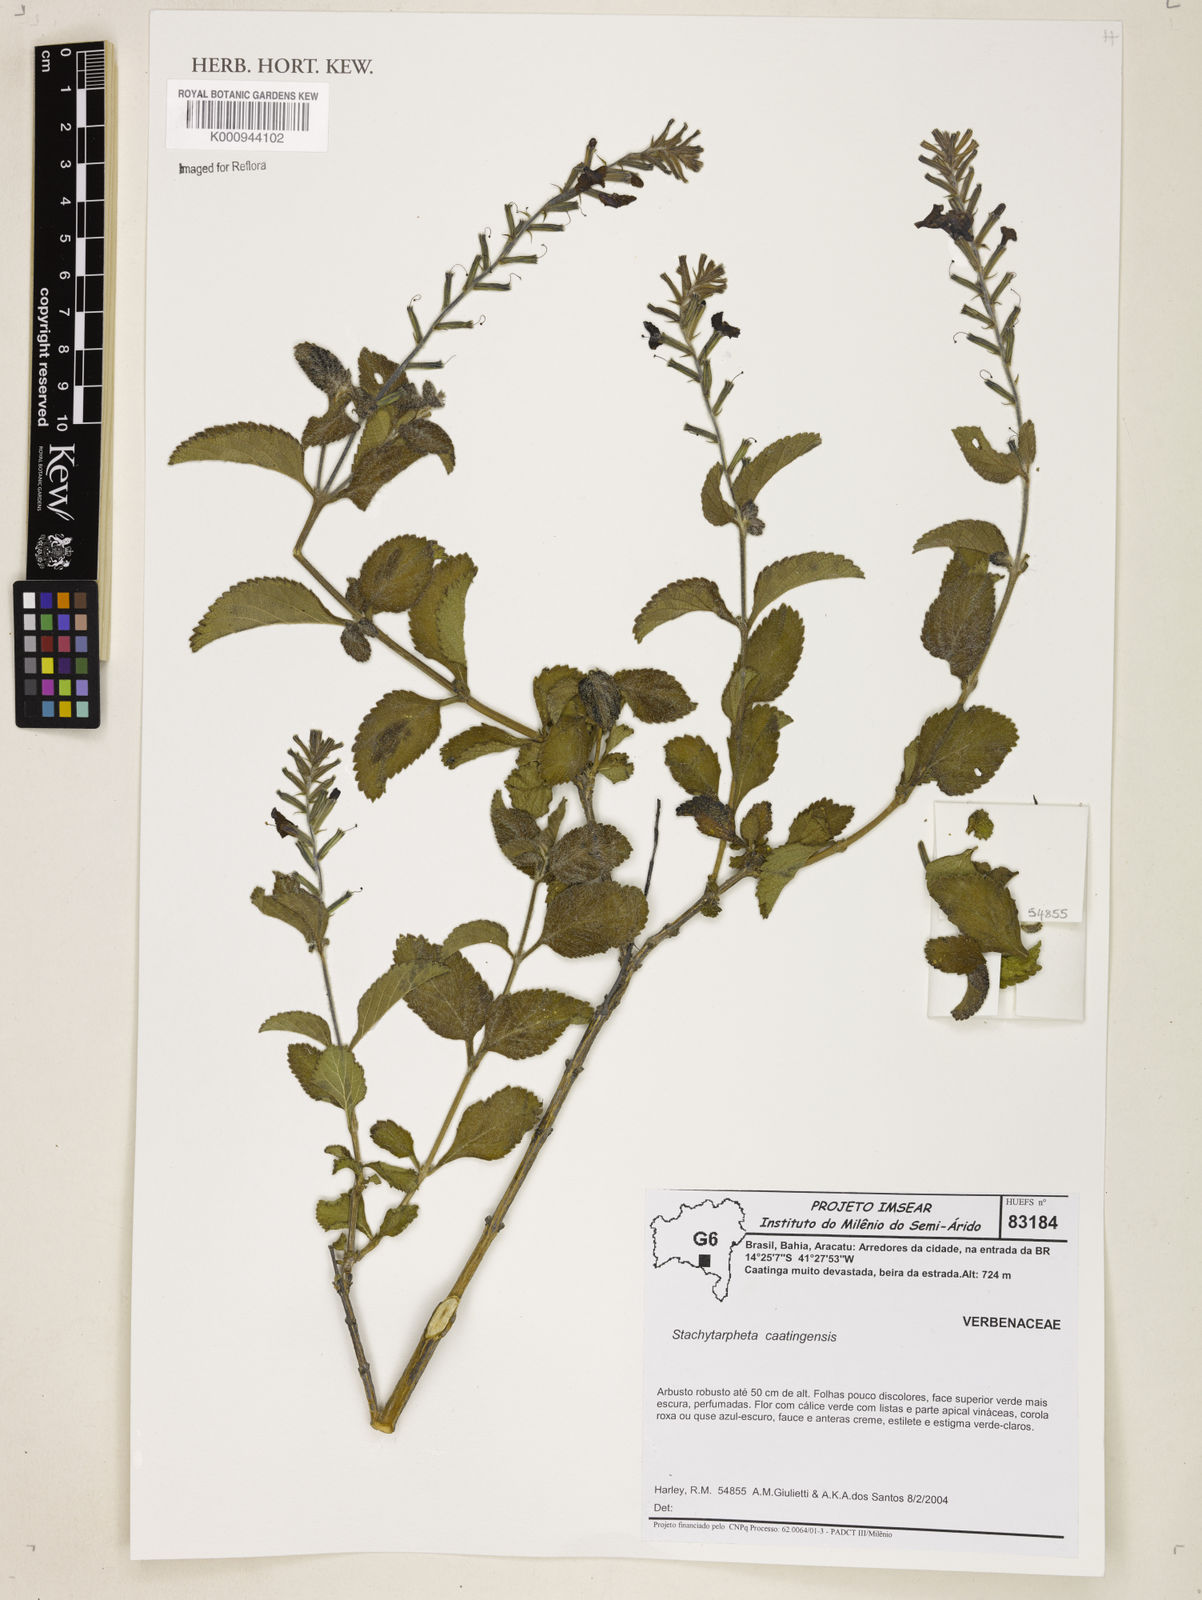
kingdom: Plantae
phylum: Tracheophyta
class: Magnoliopsida
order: Lamiales
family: Verbenaceae
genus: Stachytarpheta
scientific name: Stachytarpheta brasiliensis
